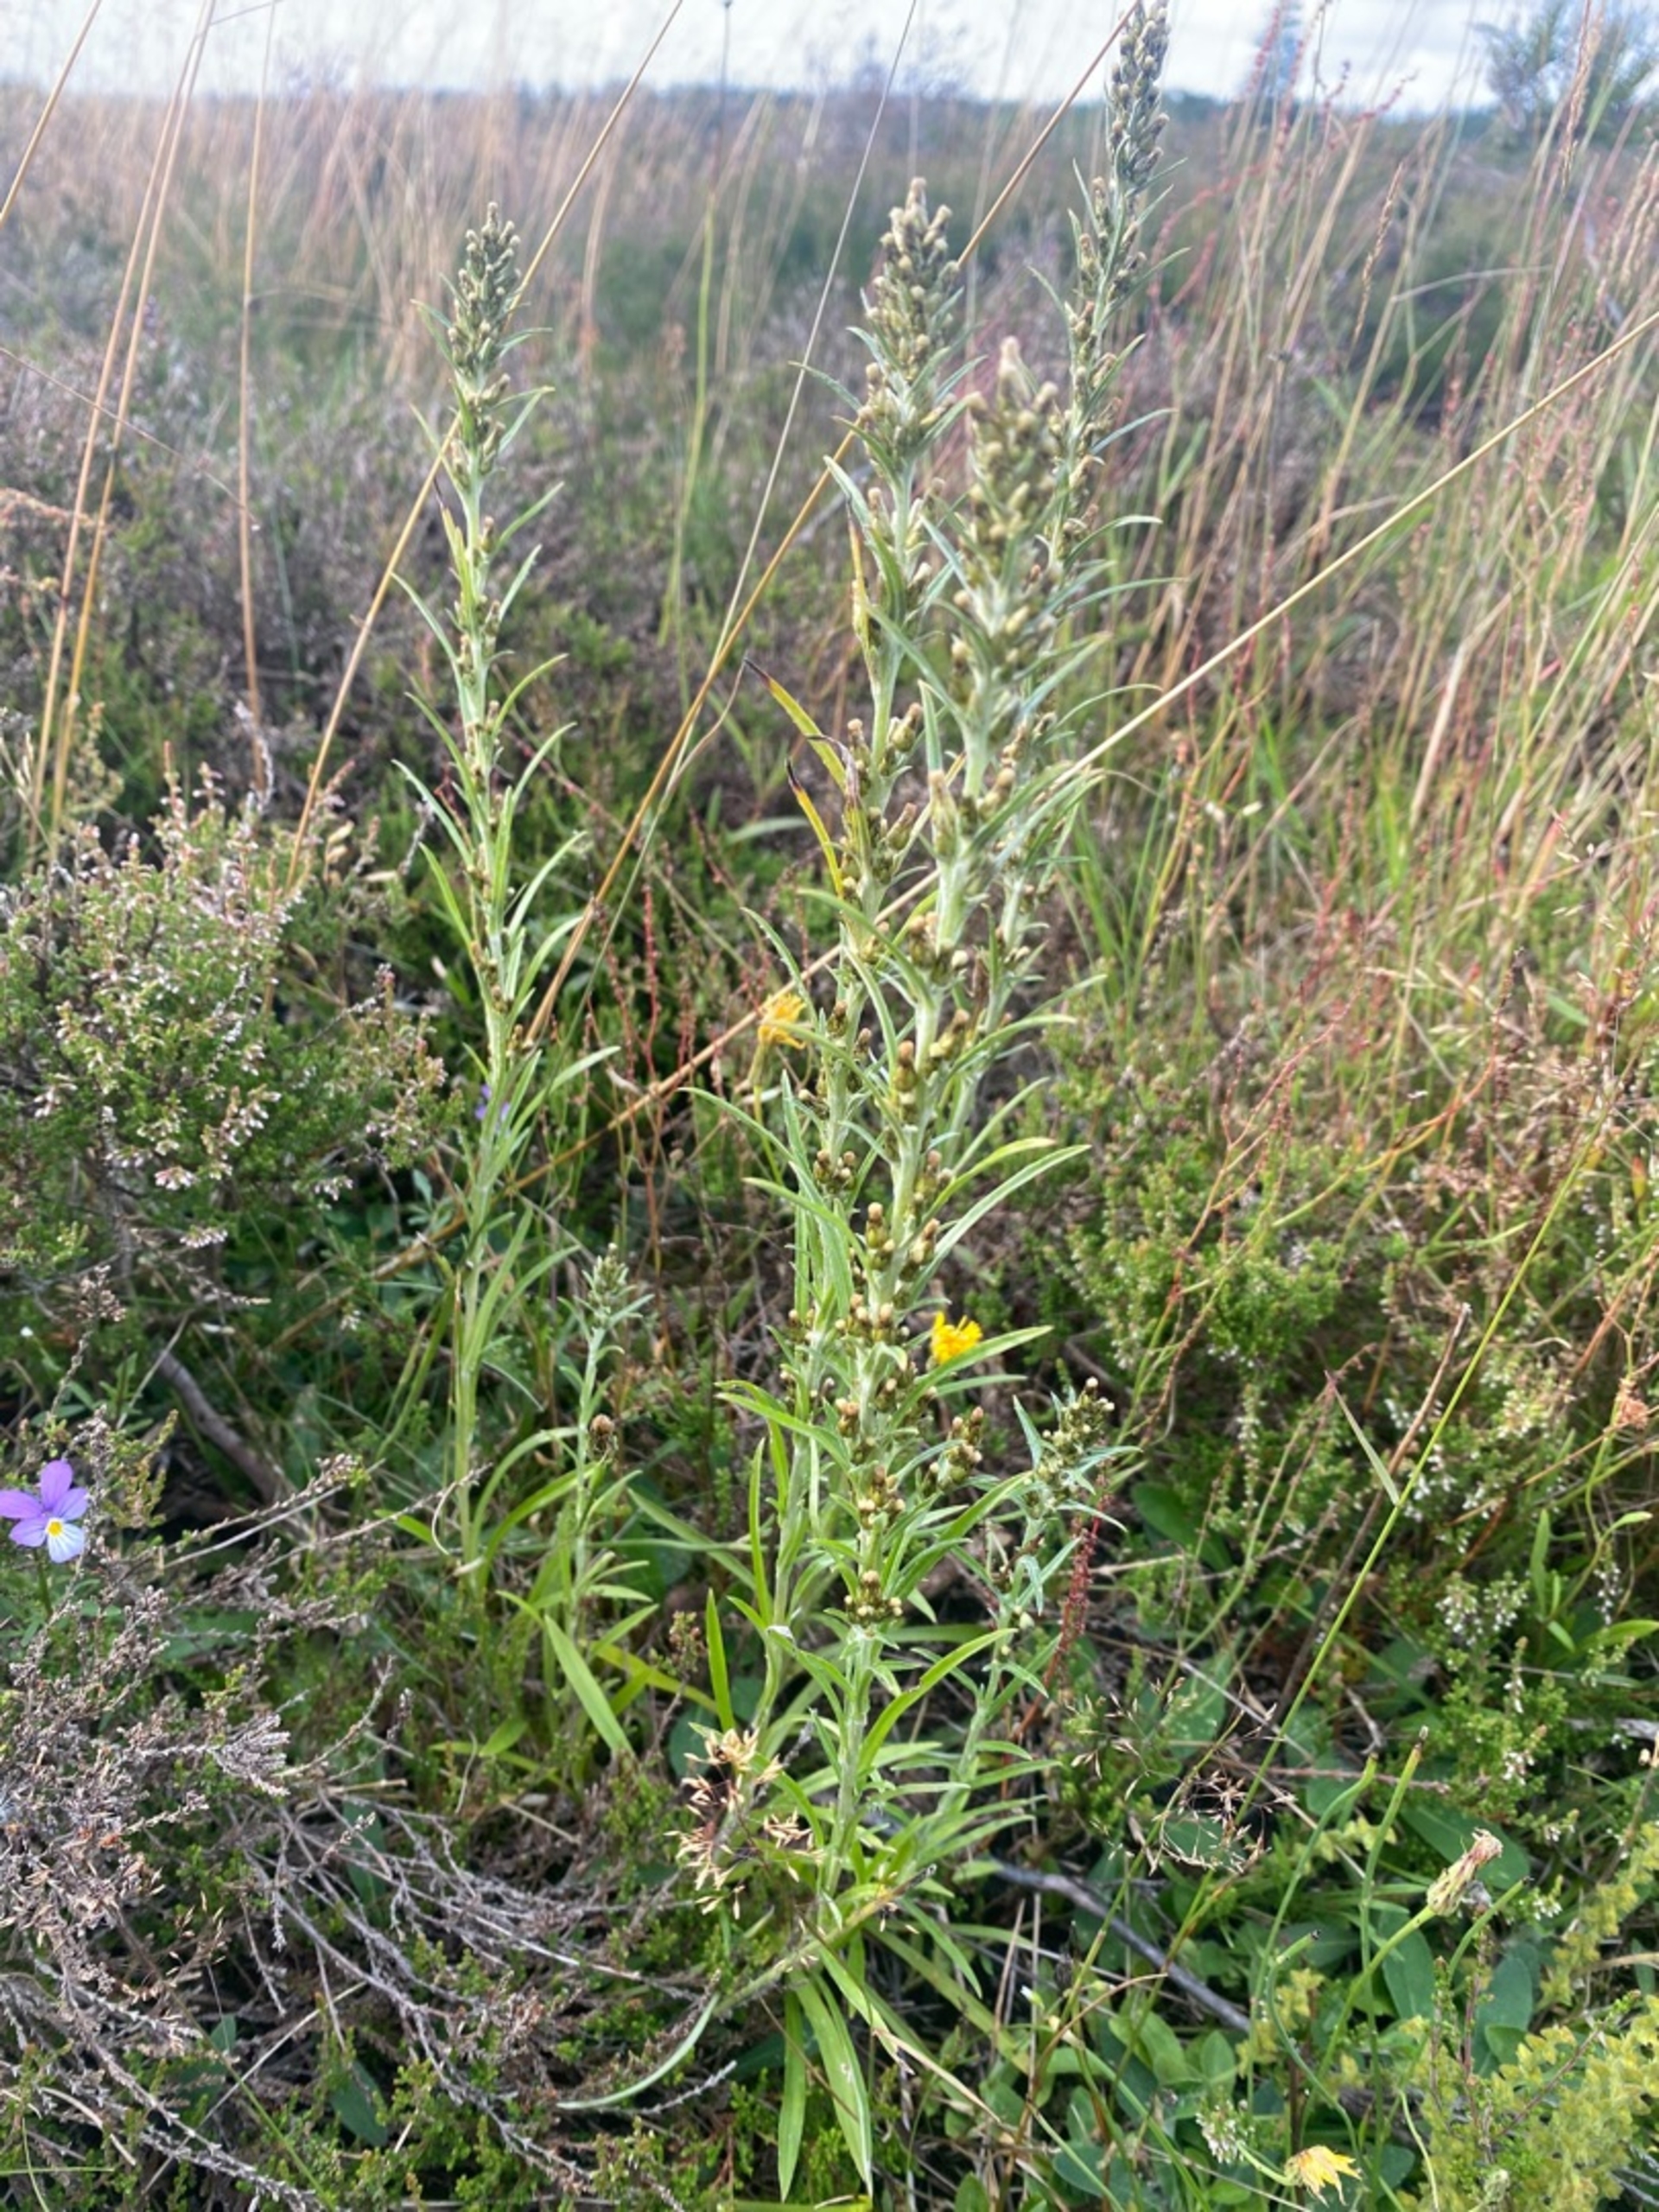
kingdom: Plantae
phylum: Tracheophyta
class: Magnoliopsida
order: Asterales
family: Asteraceae
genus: Omalotheca
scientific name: Omalotheca sylvatica
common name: Rank evighedsblomst
